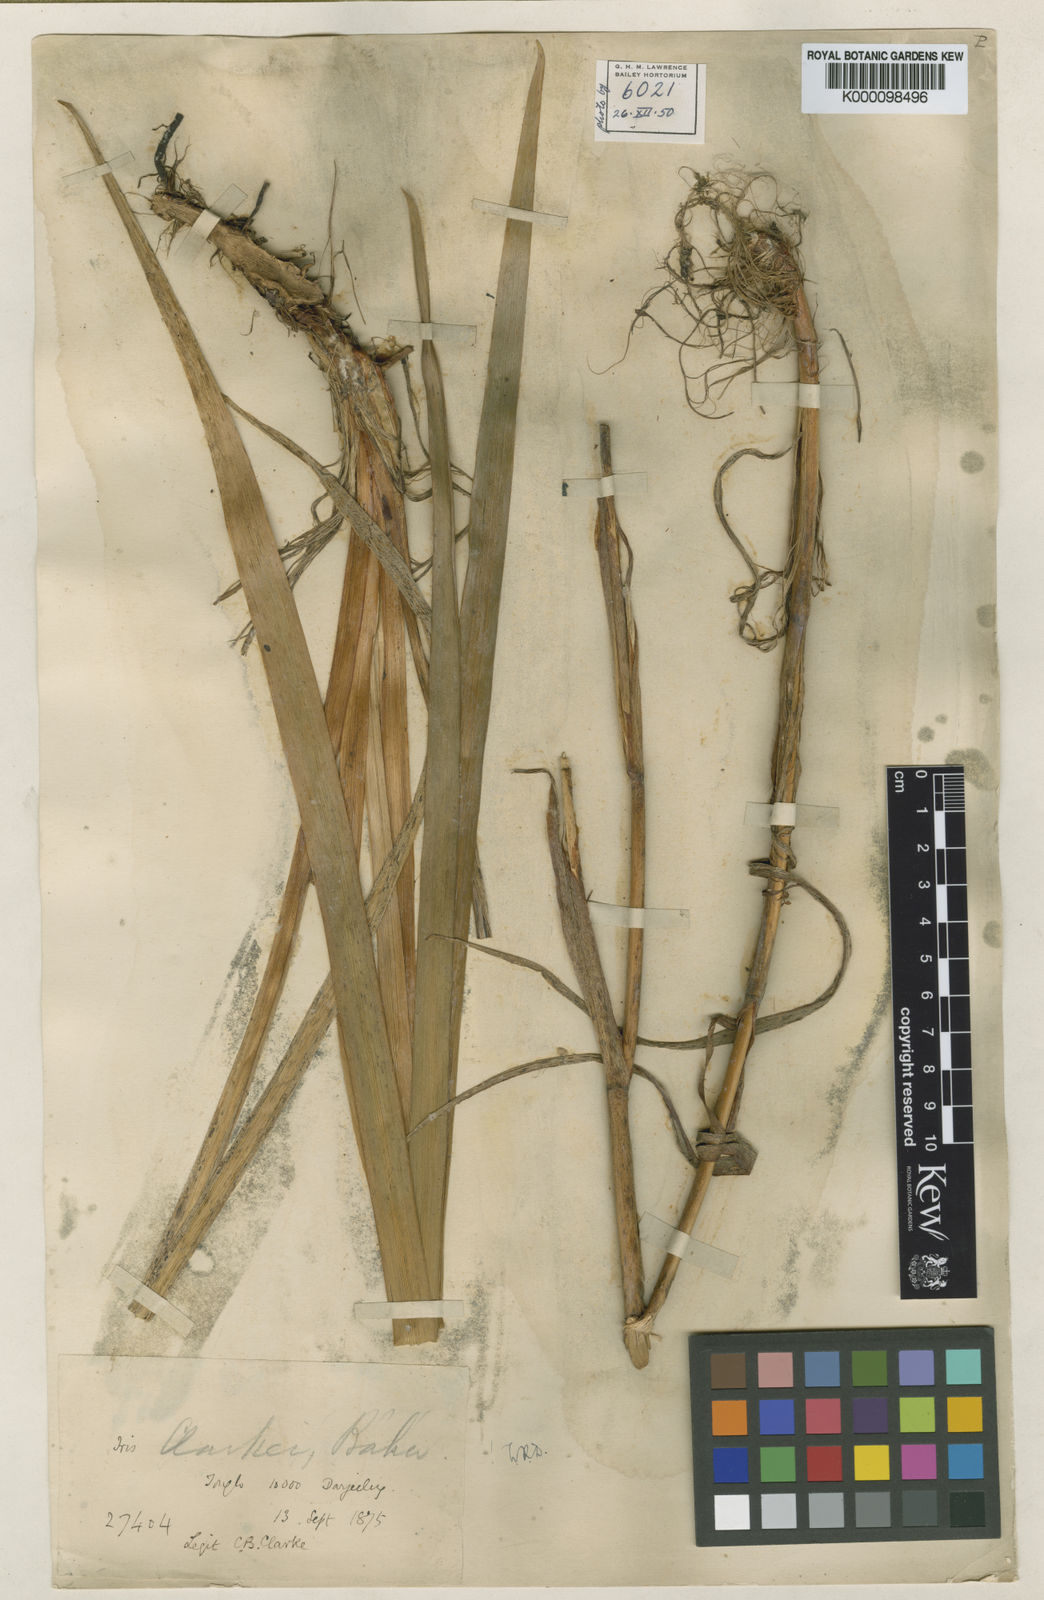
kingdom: Plantae
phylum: Tracheophyta
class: Liliopsida
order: Asparagales
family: Iridaceae
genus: Iris
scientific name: Iris
